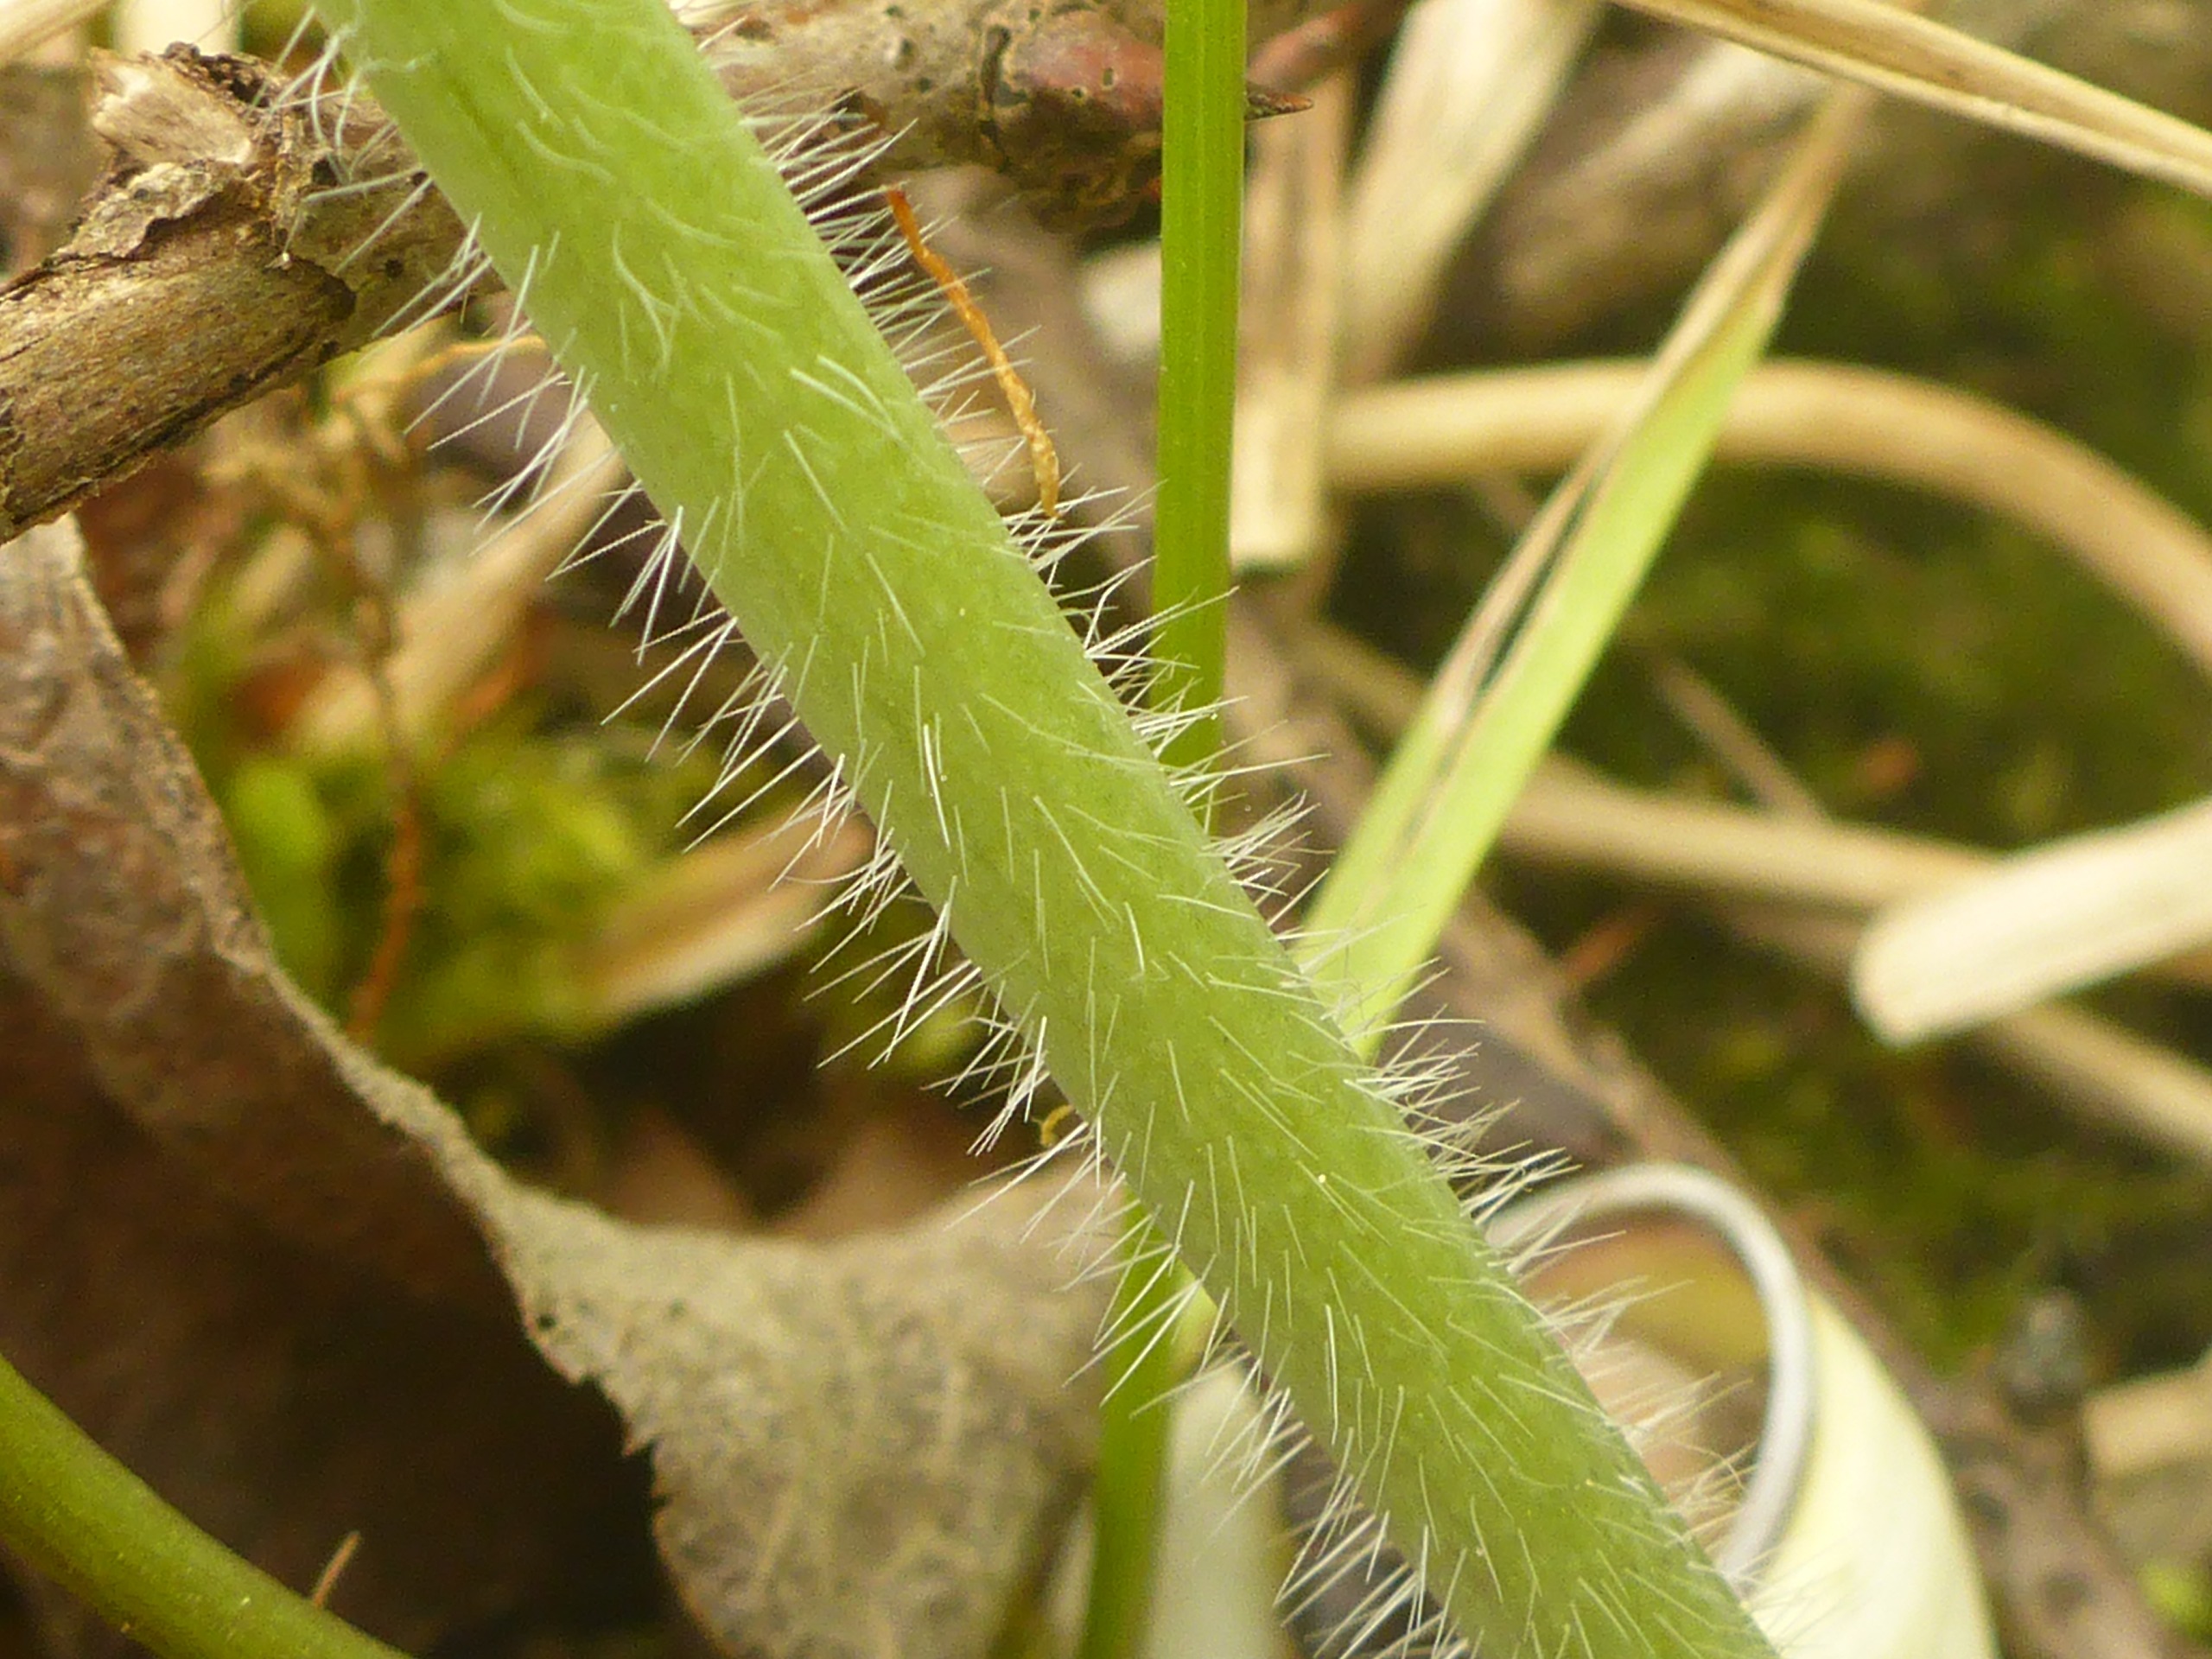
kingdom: Plantae
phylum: Tracheophyta
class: Magnoliopsida
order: Brassicales
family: Brassicaceae
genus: Alliaria
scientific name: Alliaria petiolata
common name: Løgkarse
